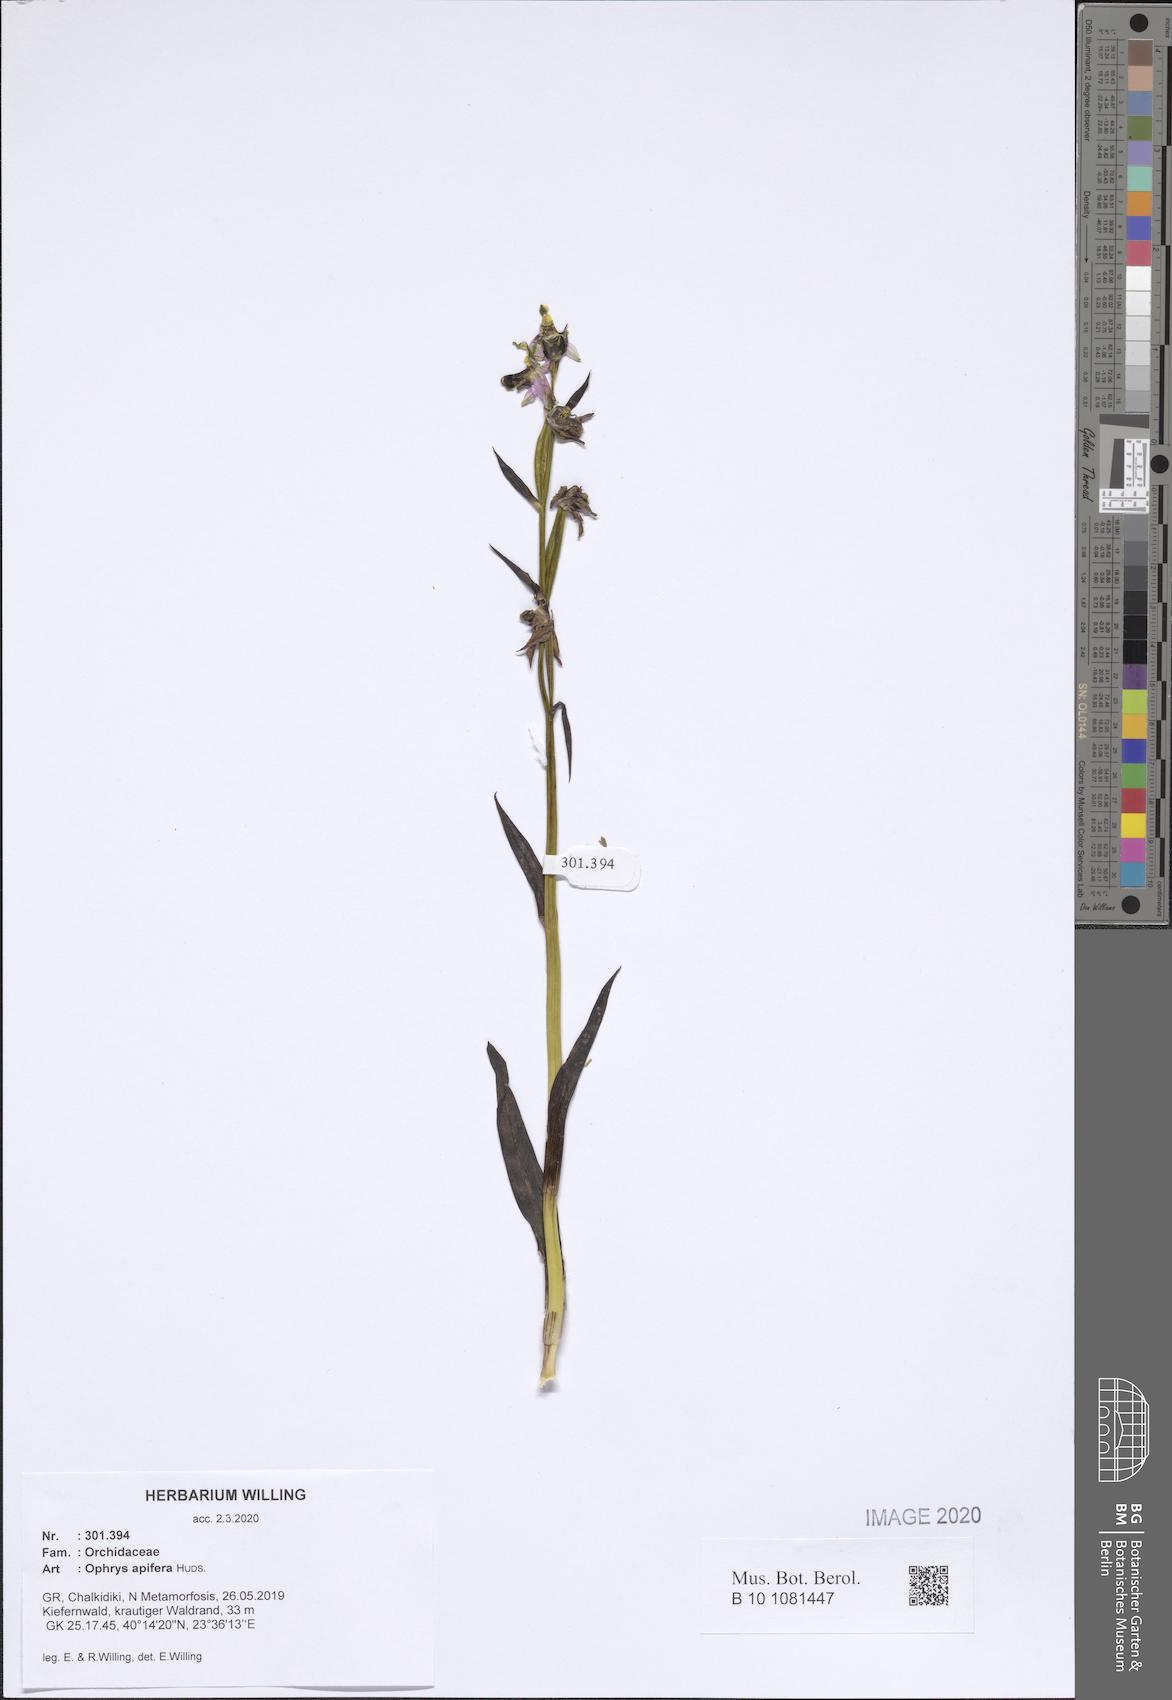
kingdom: Plantae
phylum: Tracheophyta
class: Liliopsida
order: Asparagales
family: Orchidaceae
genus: Ophrys
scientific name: Ophrys apifera
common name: Bee orchid
